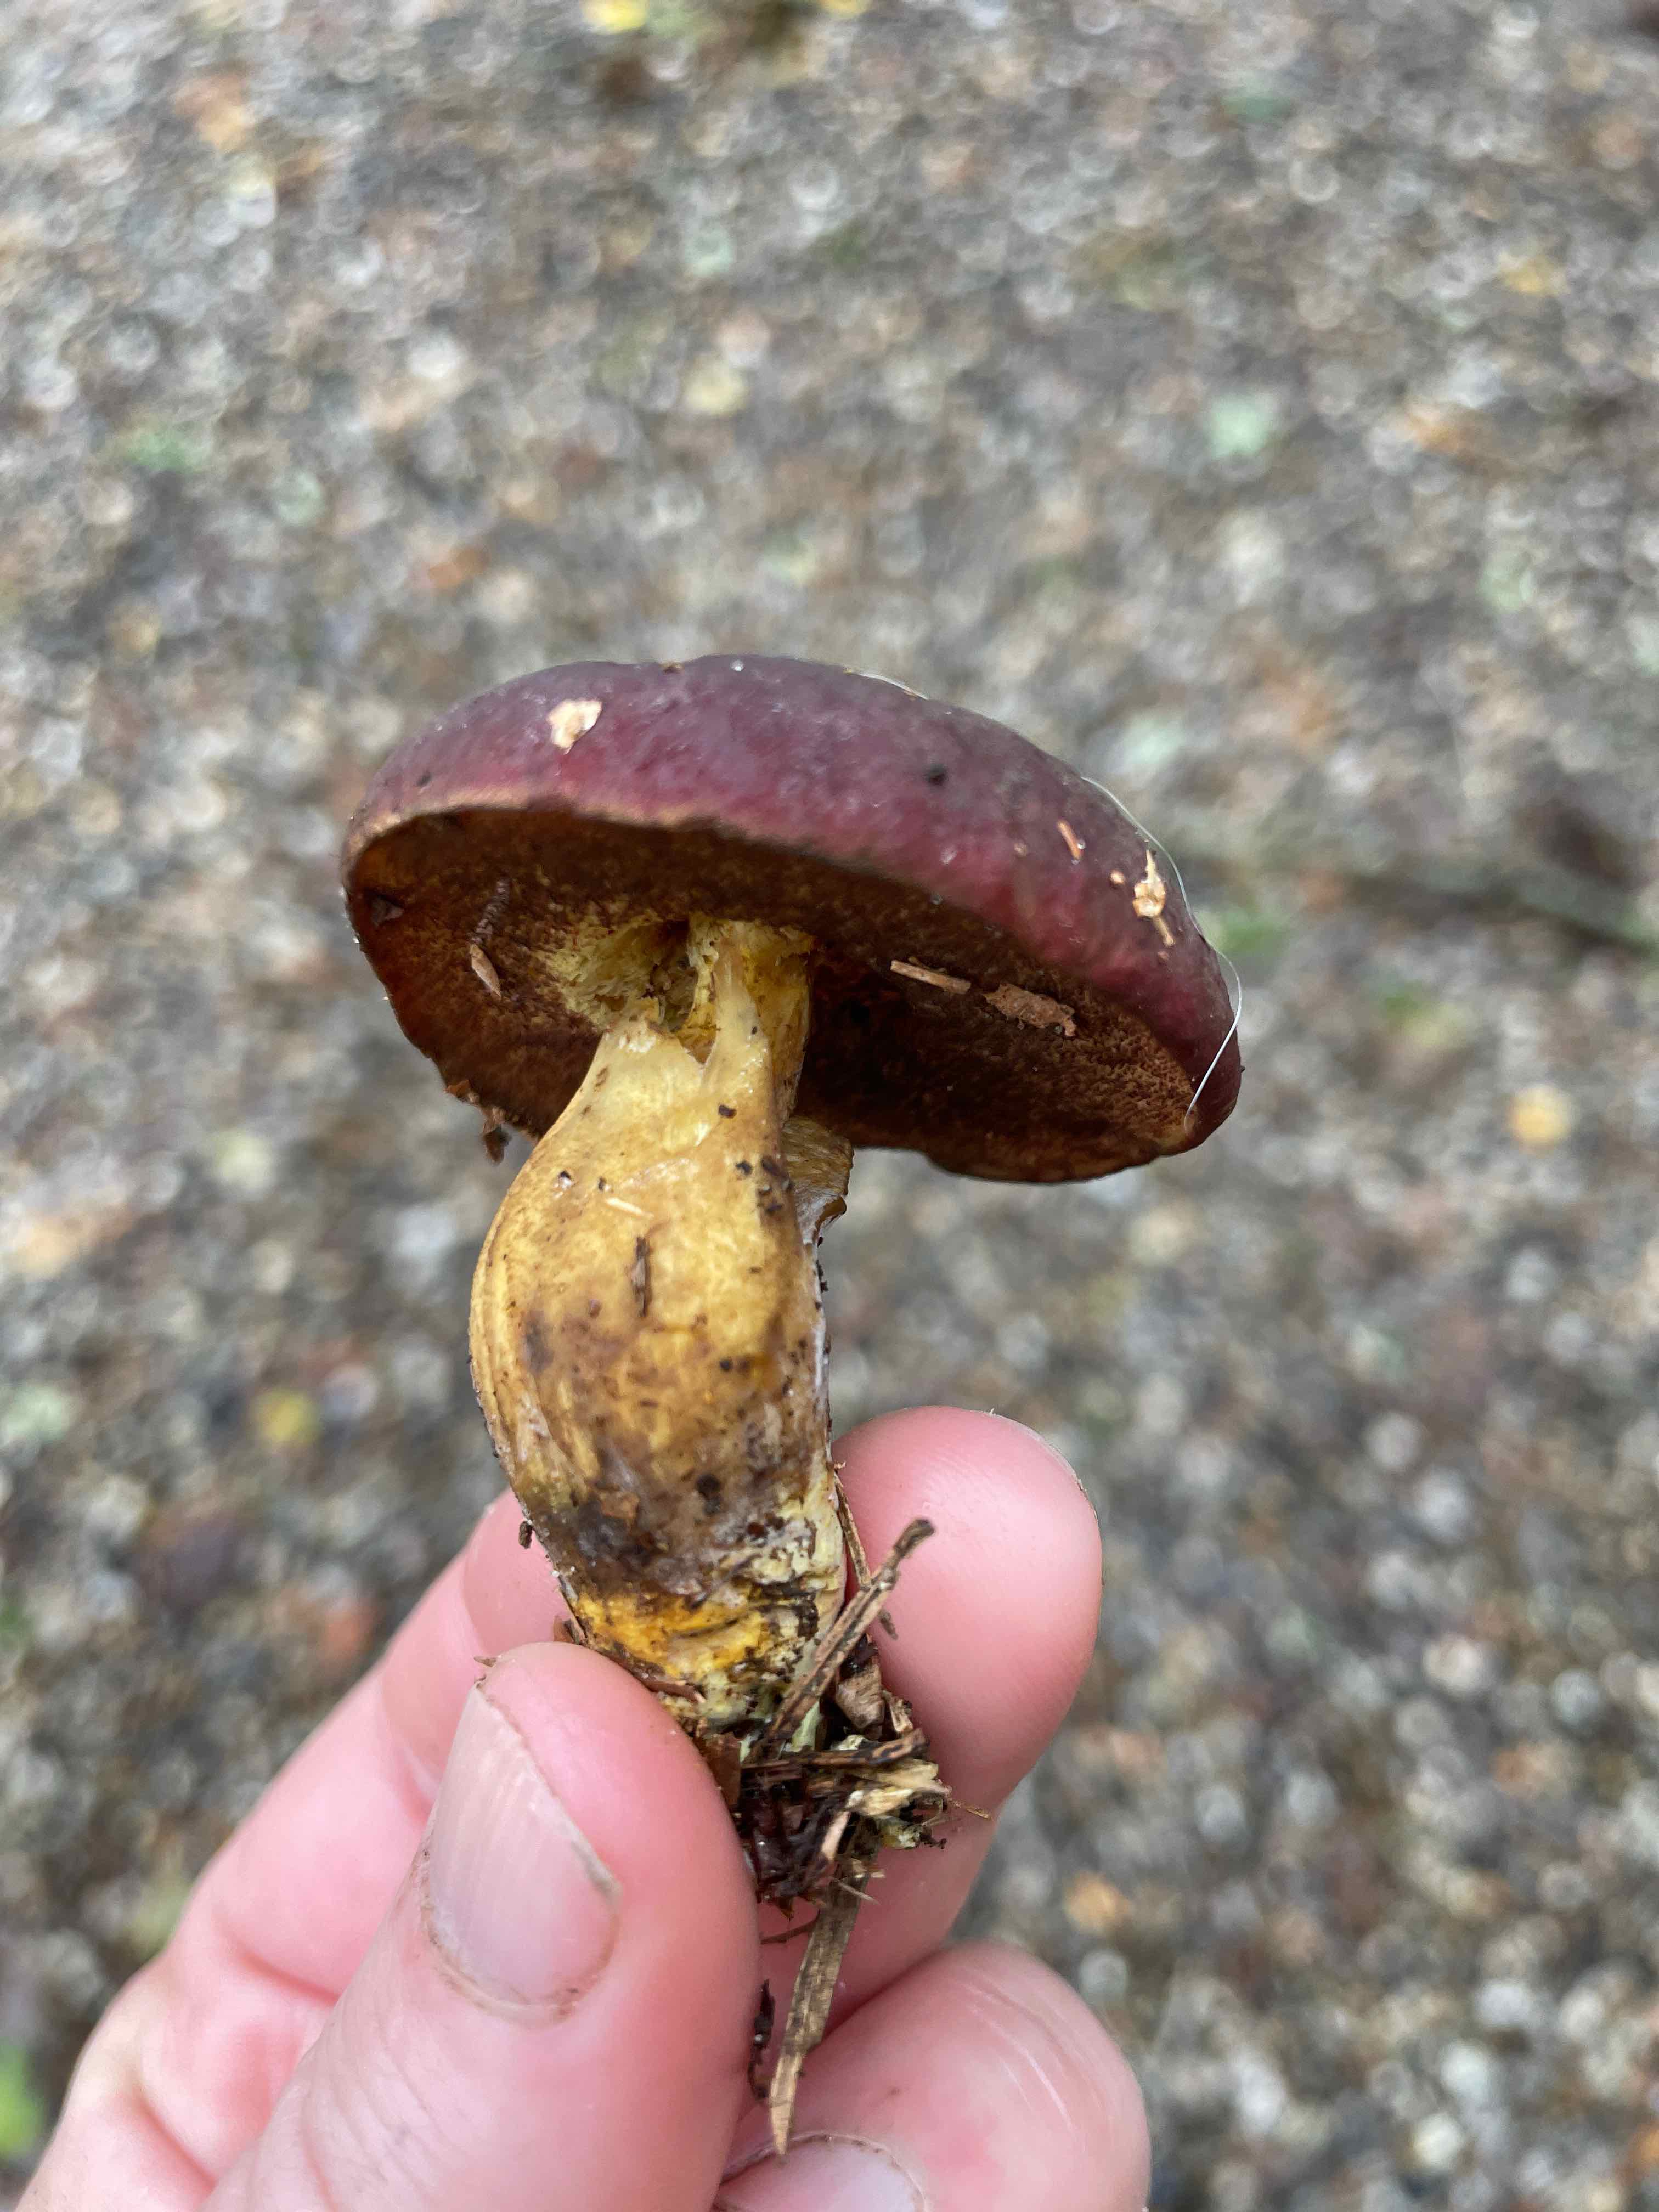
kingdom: Fungi
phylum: Basidiomycota
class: Agaricomycetes
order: Boletales
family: Boletaceae
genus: Xerocomellus
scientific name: Xerocomellus pruinatus
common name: dugget rørhat
